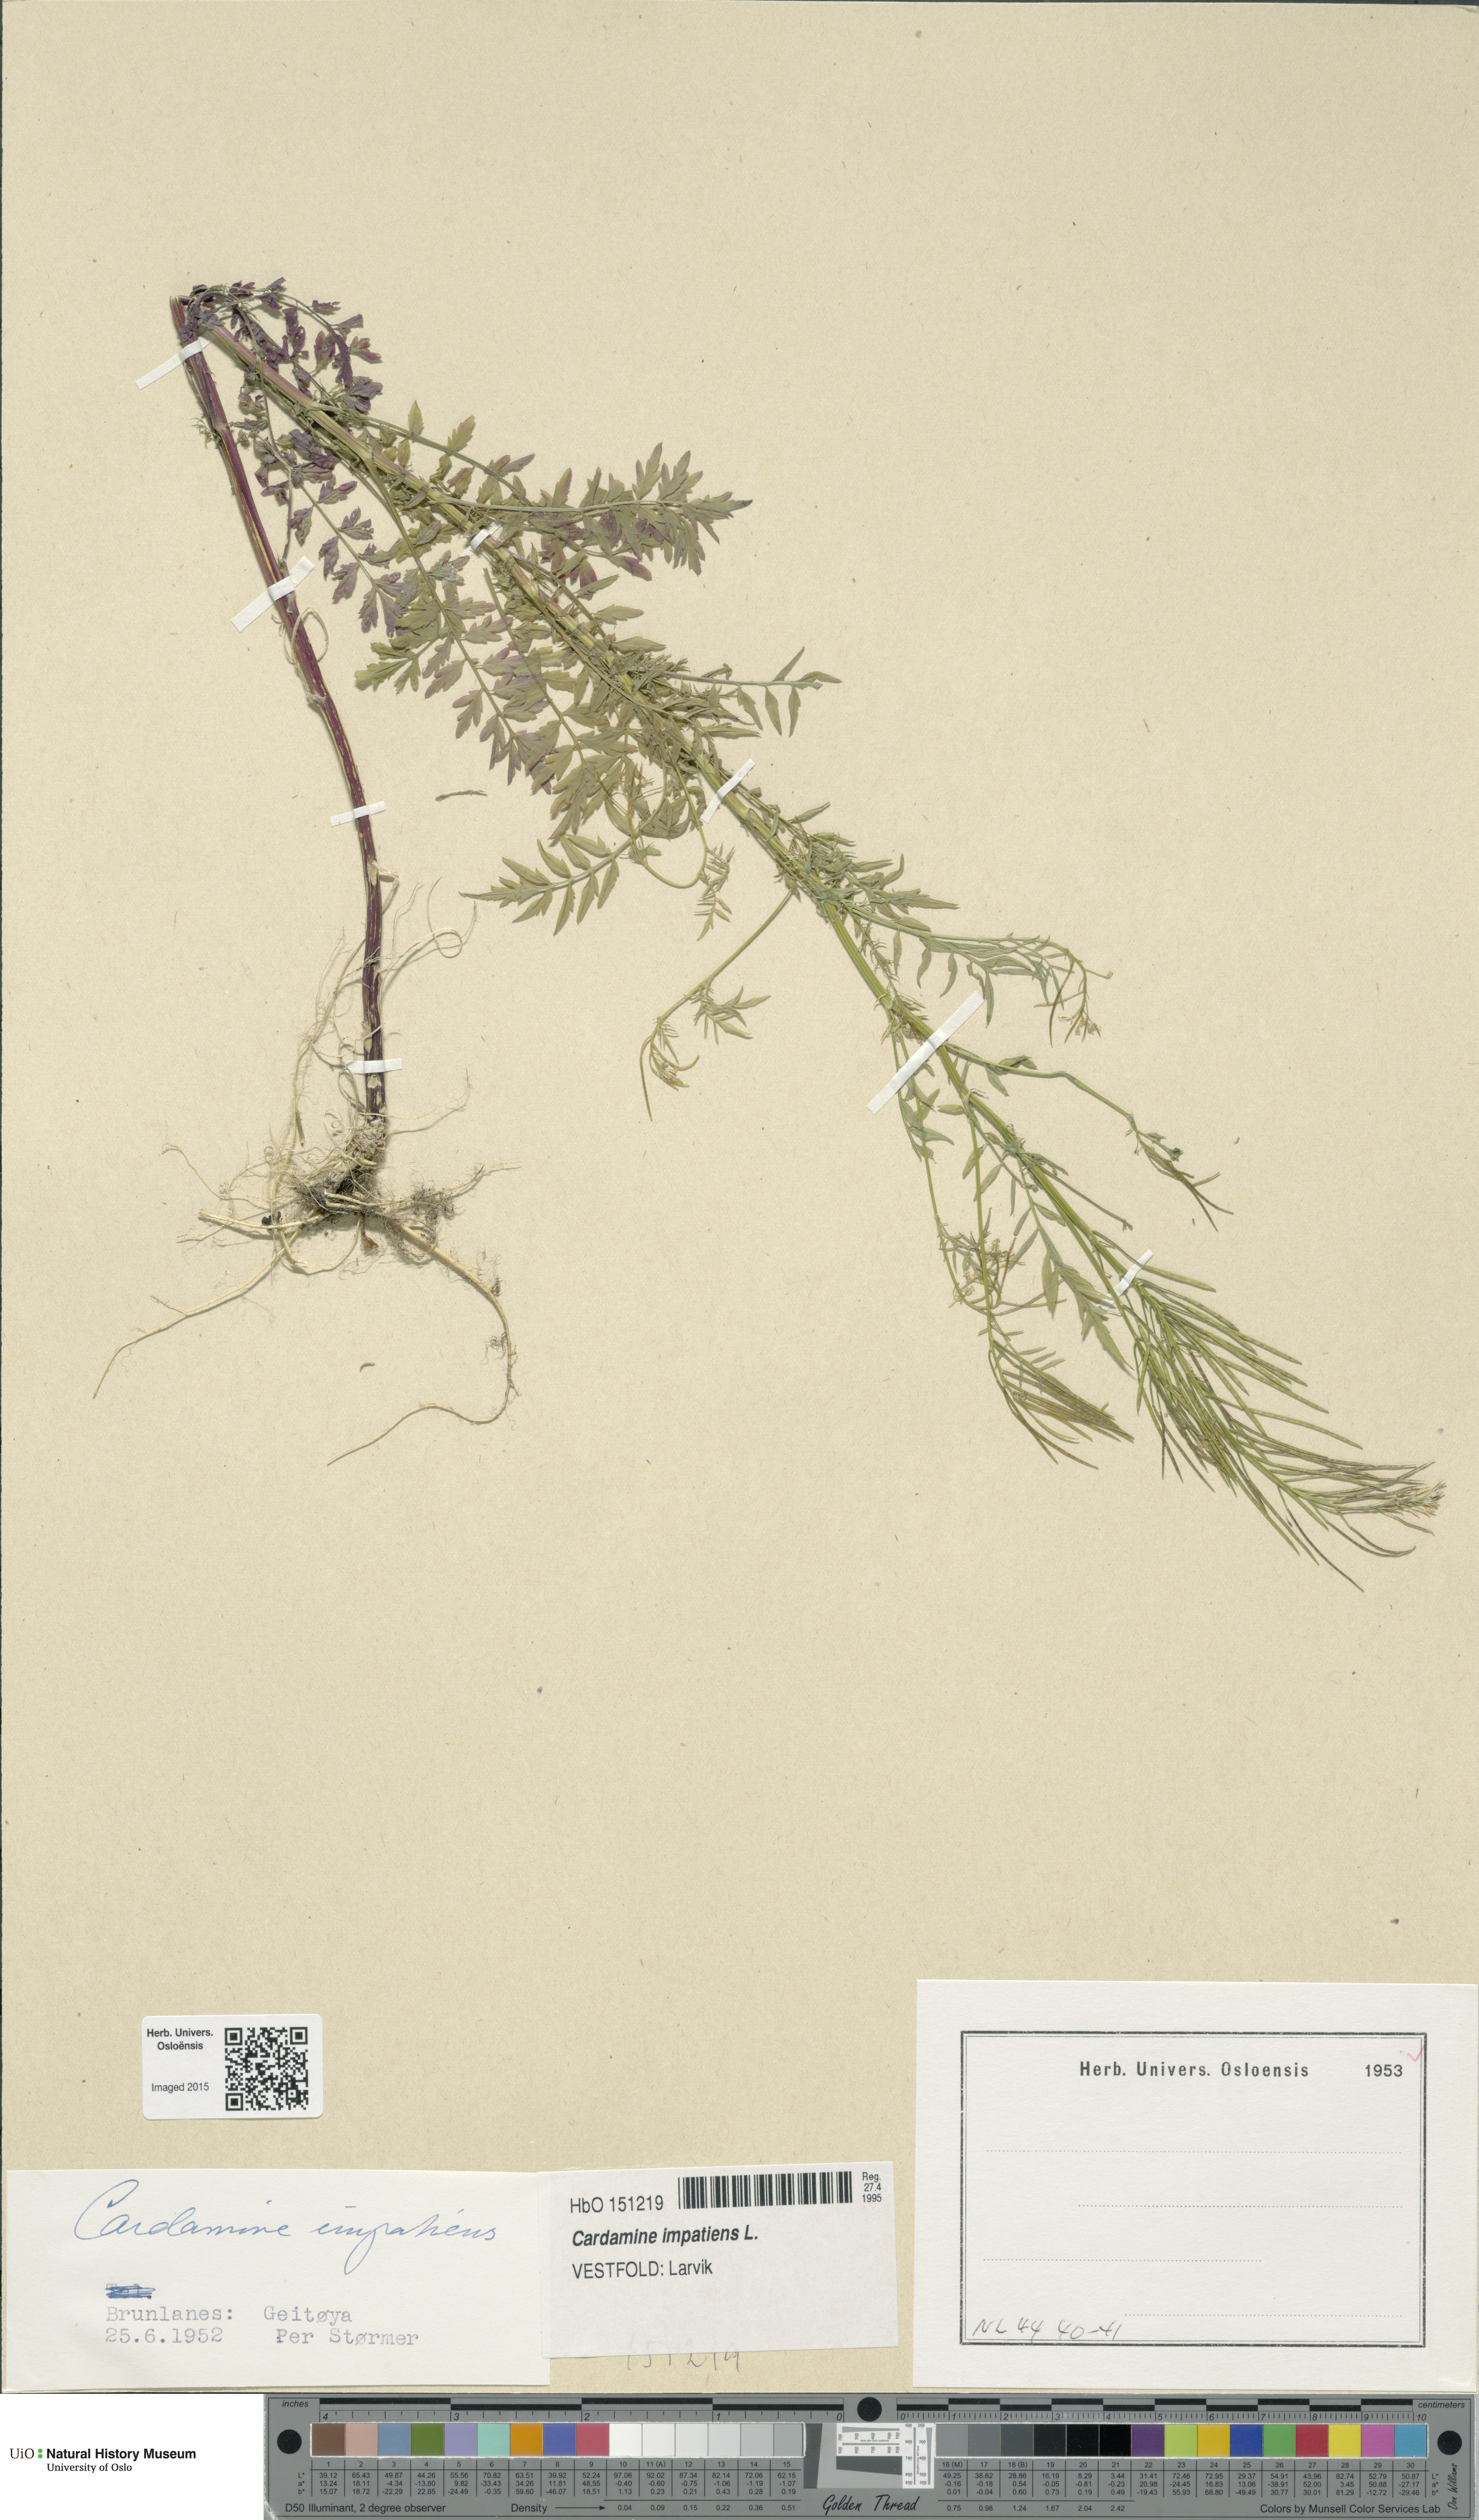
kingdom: Plantae
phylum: Tracheophyta
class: Magnoliopsida
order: Brassicales
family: Brassicaceae
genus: Cardamine
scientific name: Cardamine impatiens
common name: Narrow-leaved bitter-cress
